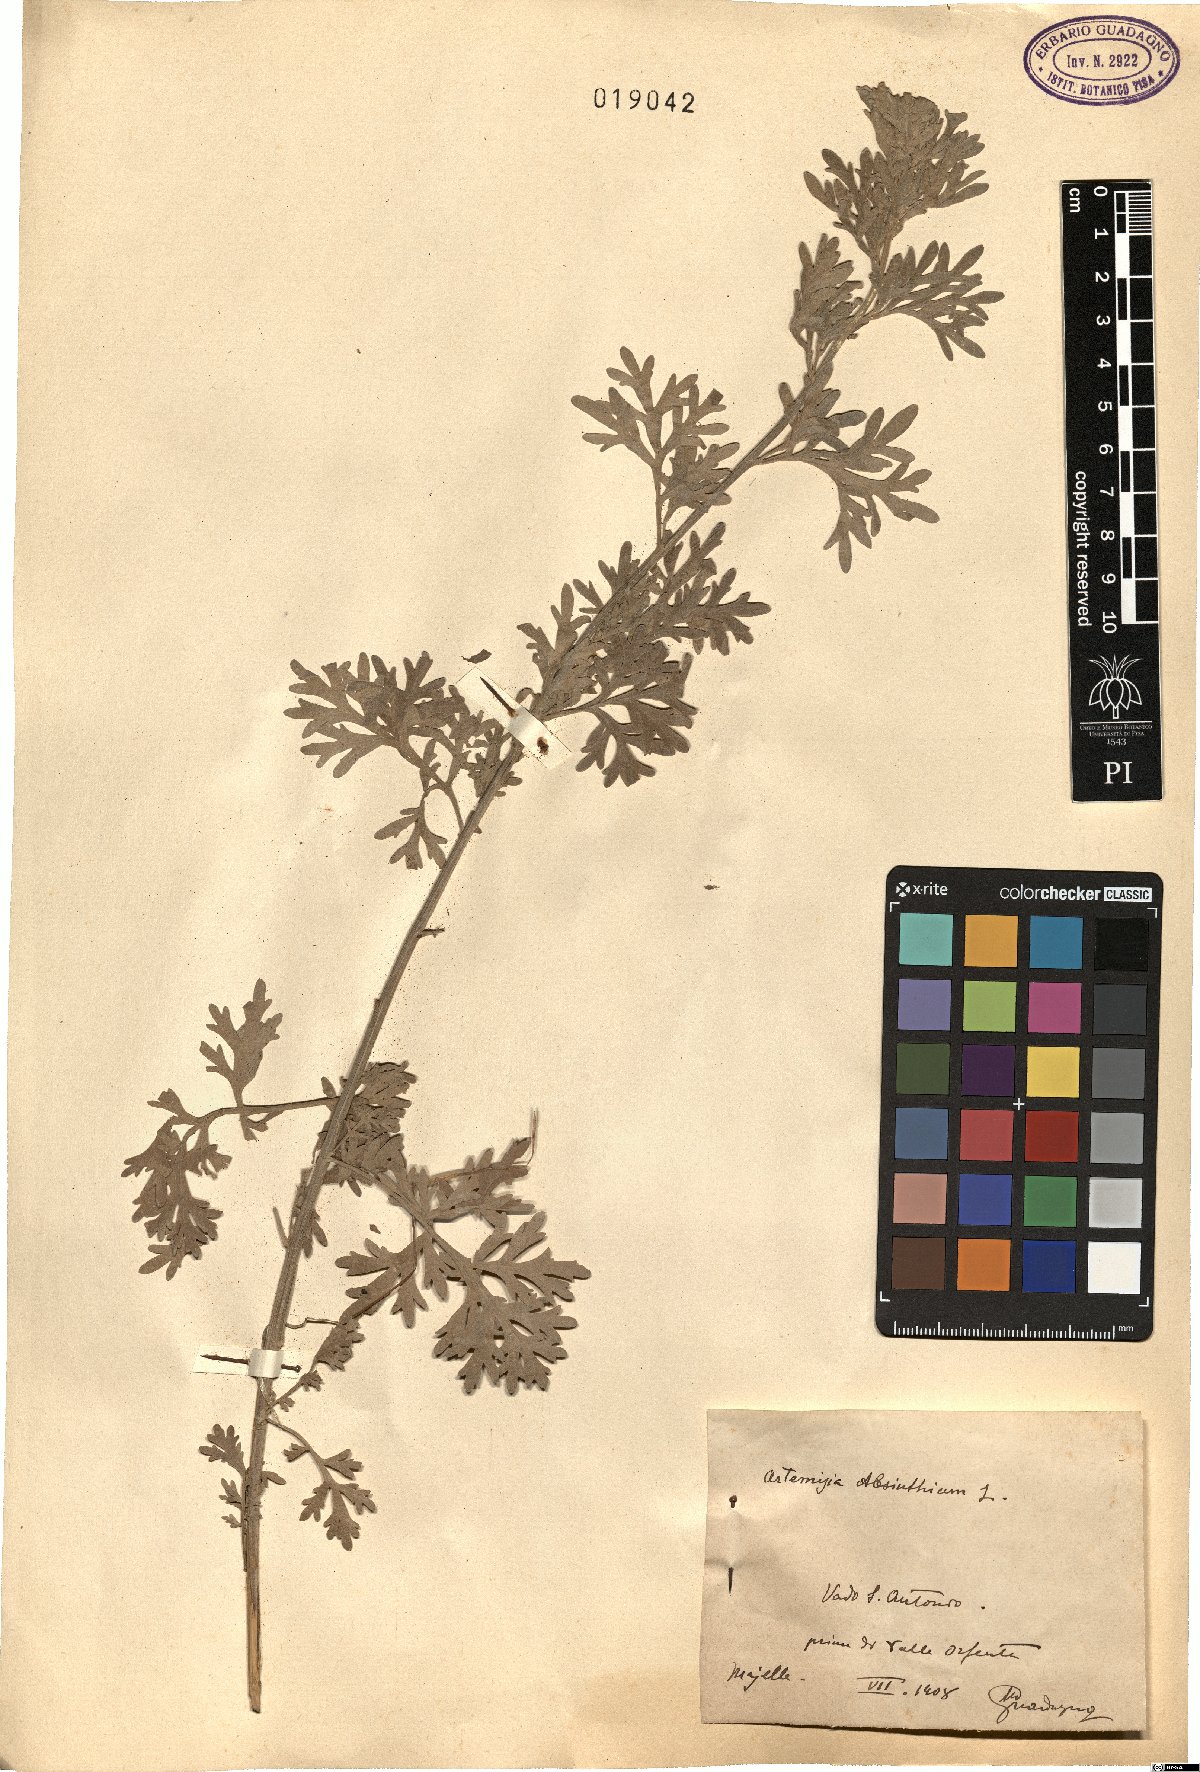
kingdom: Plantae
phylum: Tracheophyta
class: Magnoliopsida
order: Asterales
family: Asteraceae
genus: Artemisia
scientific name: Artemisia absinthium
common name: Wormwood
